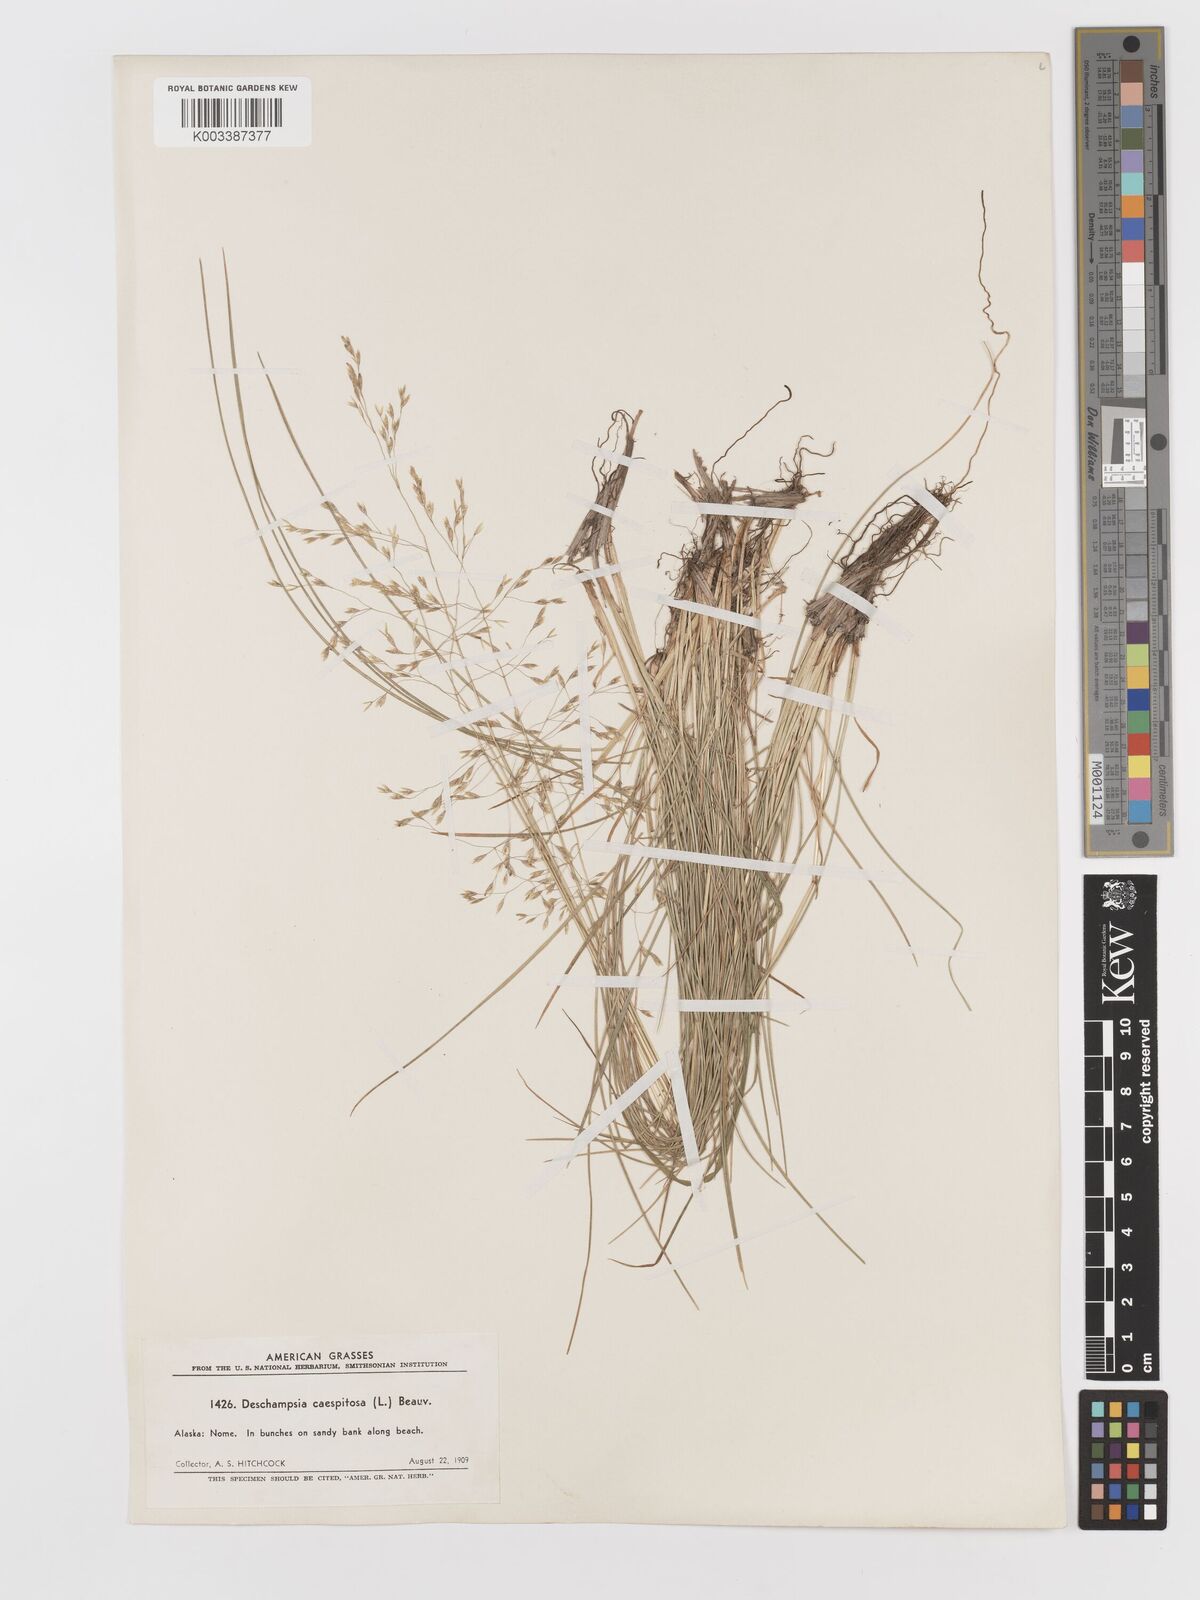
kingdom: Plantae
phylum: Tracheophyta
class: Liliopsida
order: Poales
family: Poaceae
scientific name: Poaceae
